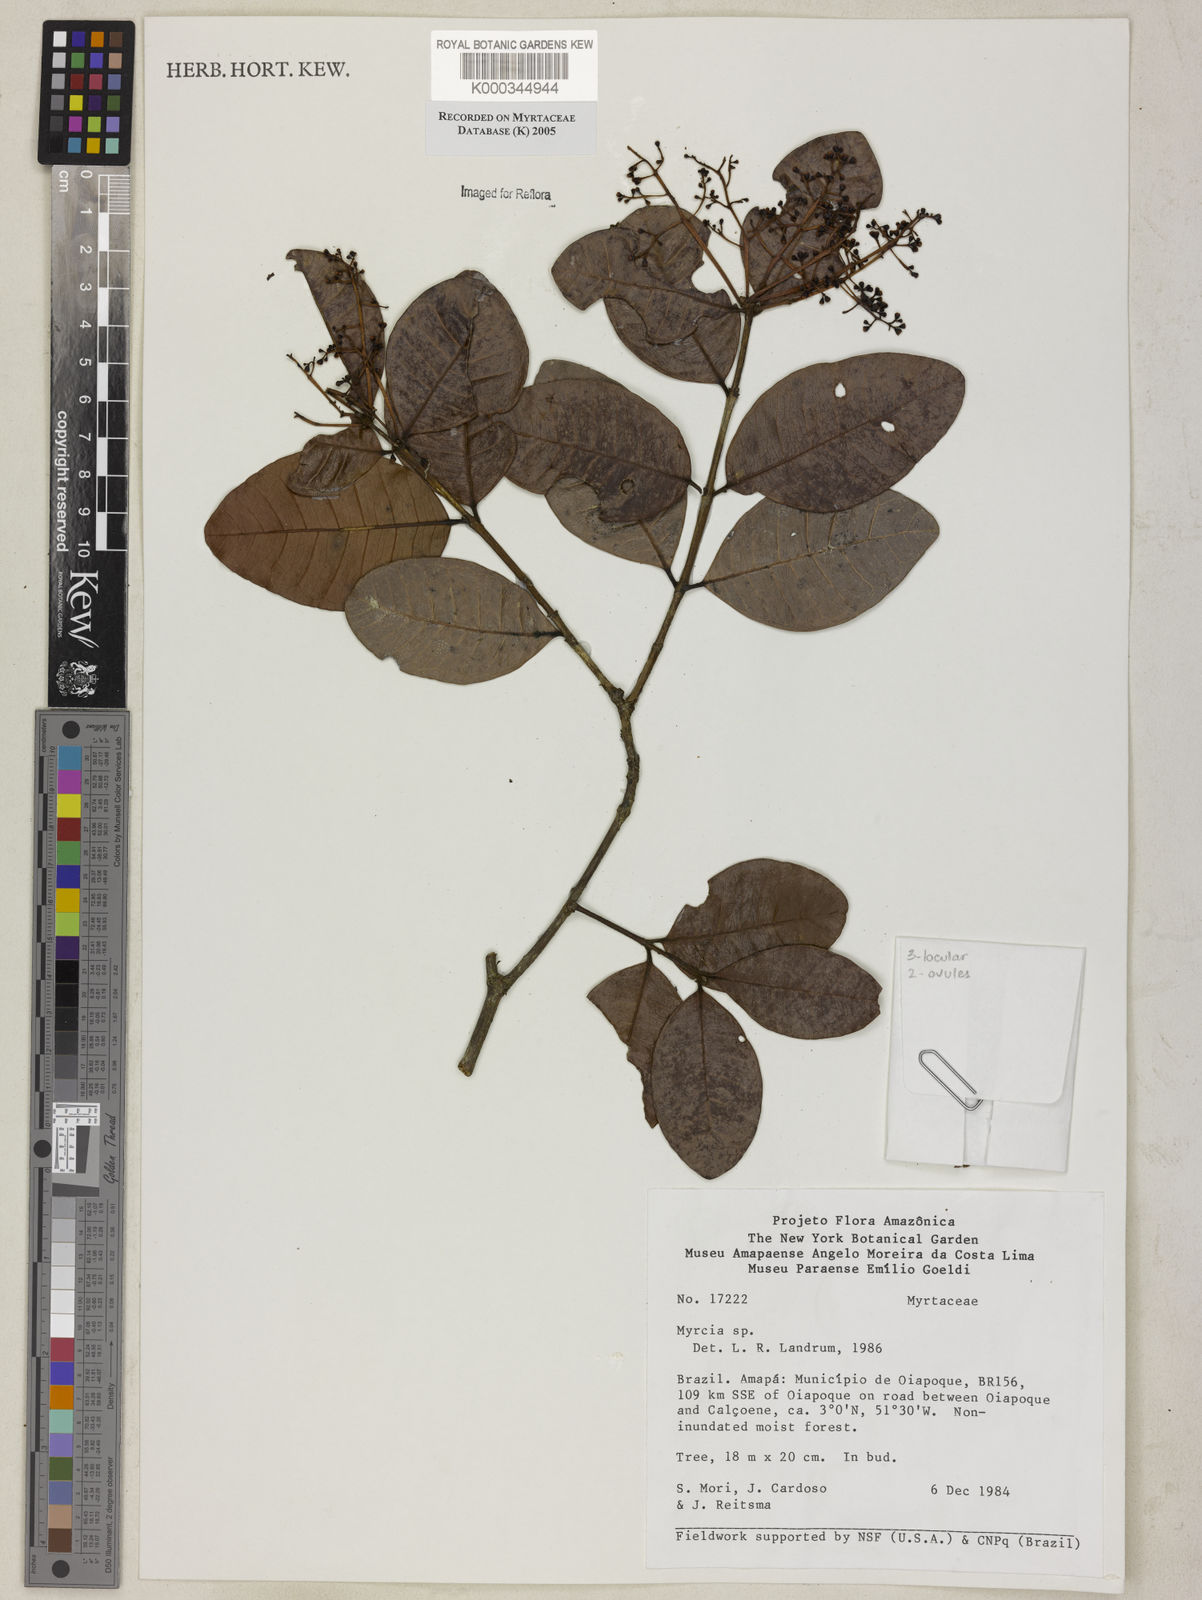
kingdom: Plantae
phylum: Tracheophyta
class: Magnoliopsida
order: Myrtales
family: Myrtaceae
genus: Myrcia
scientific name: Myrcia
